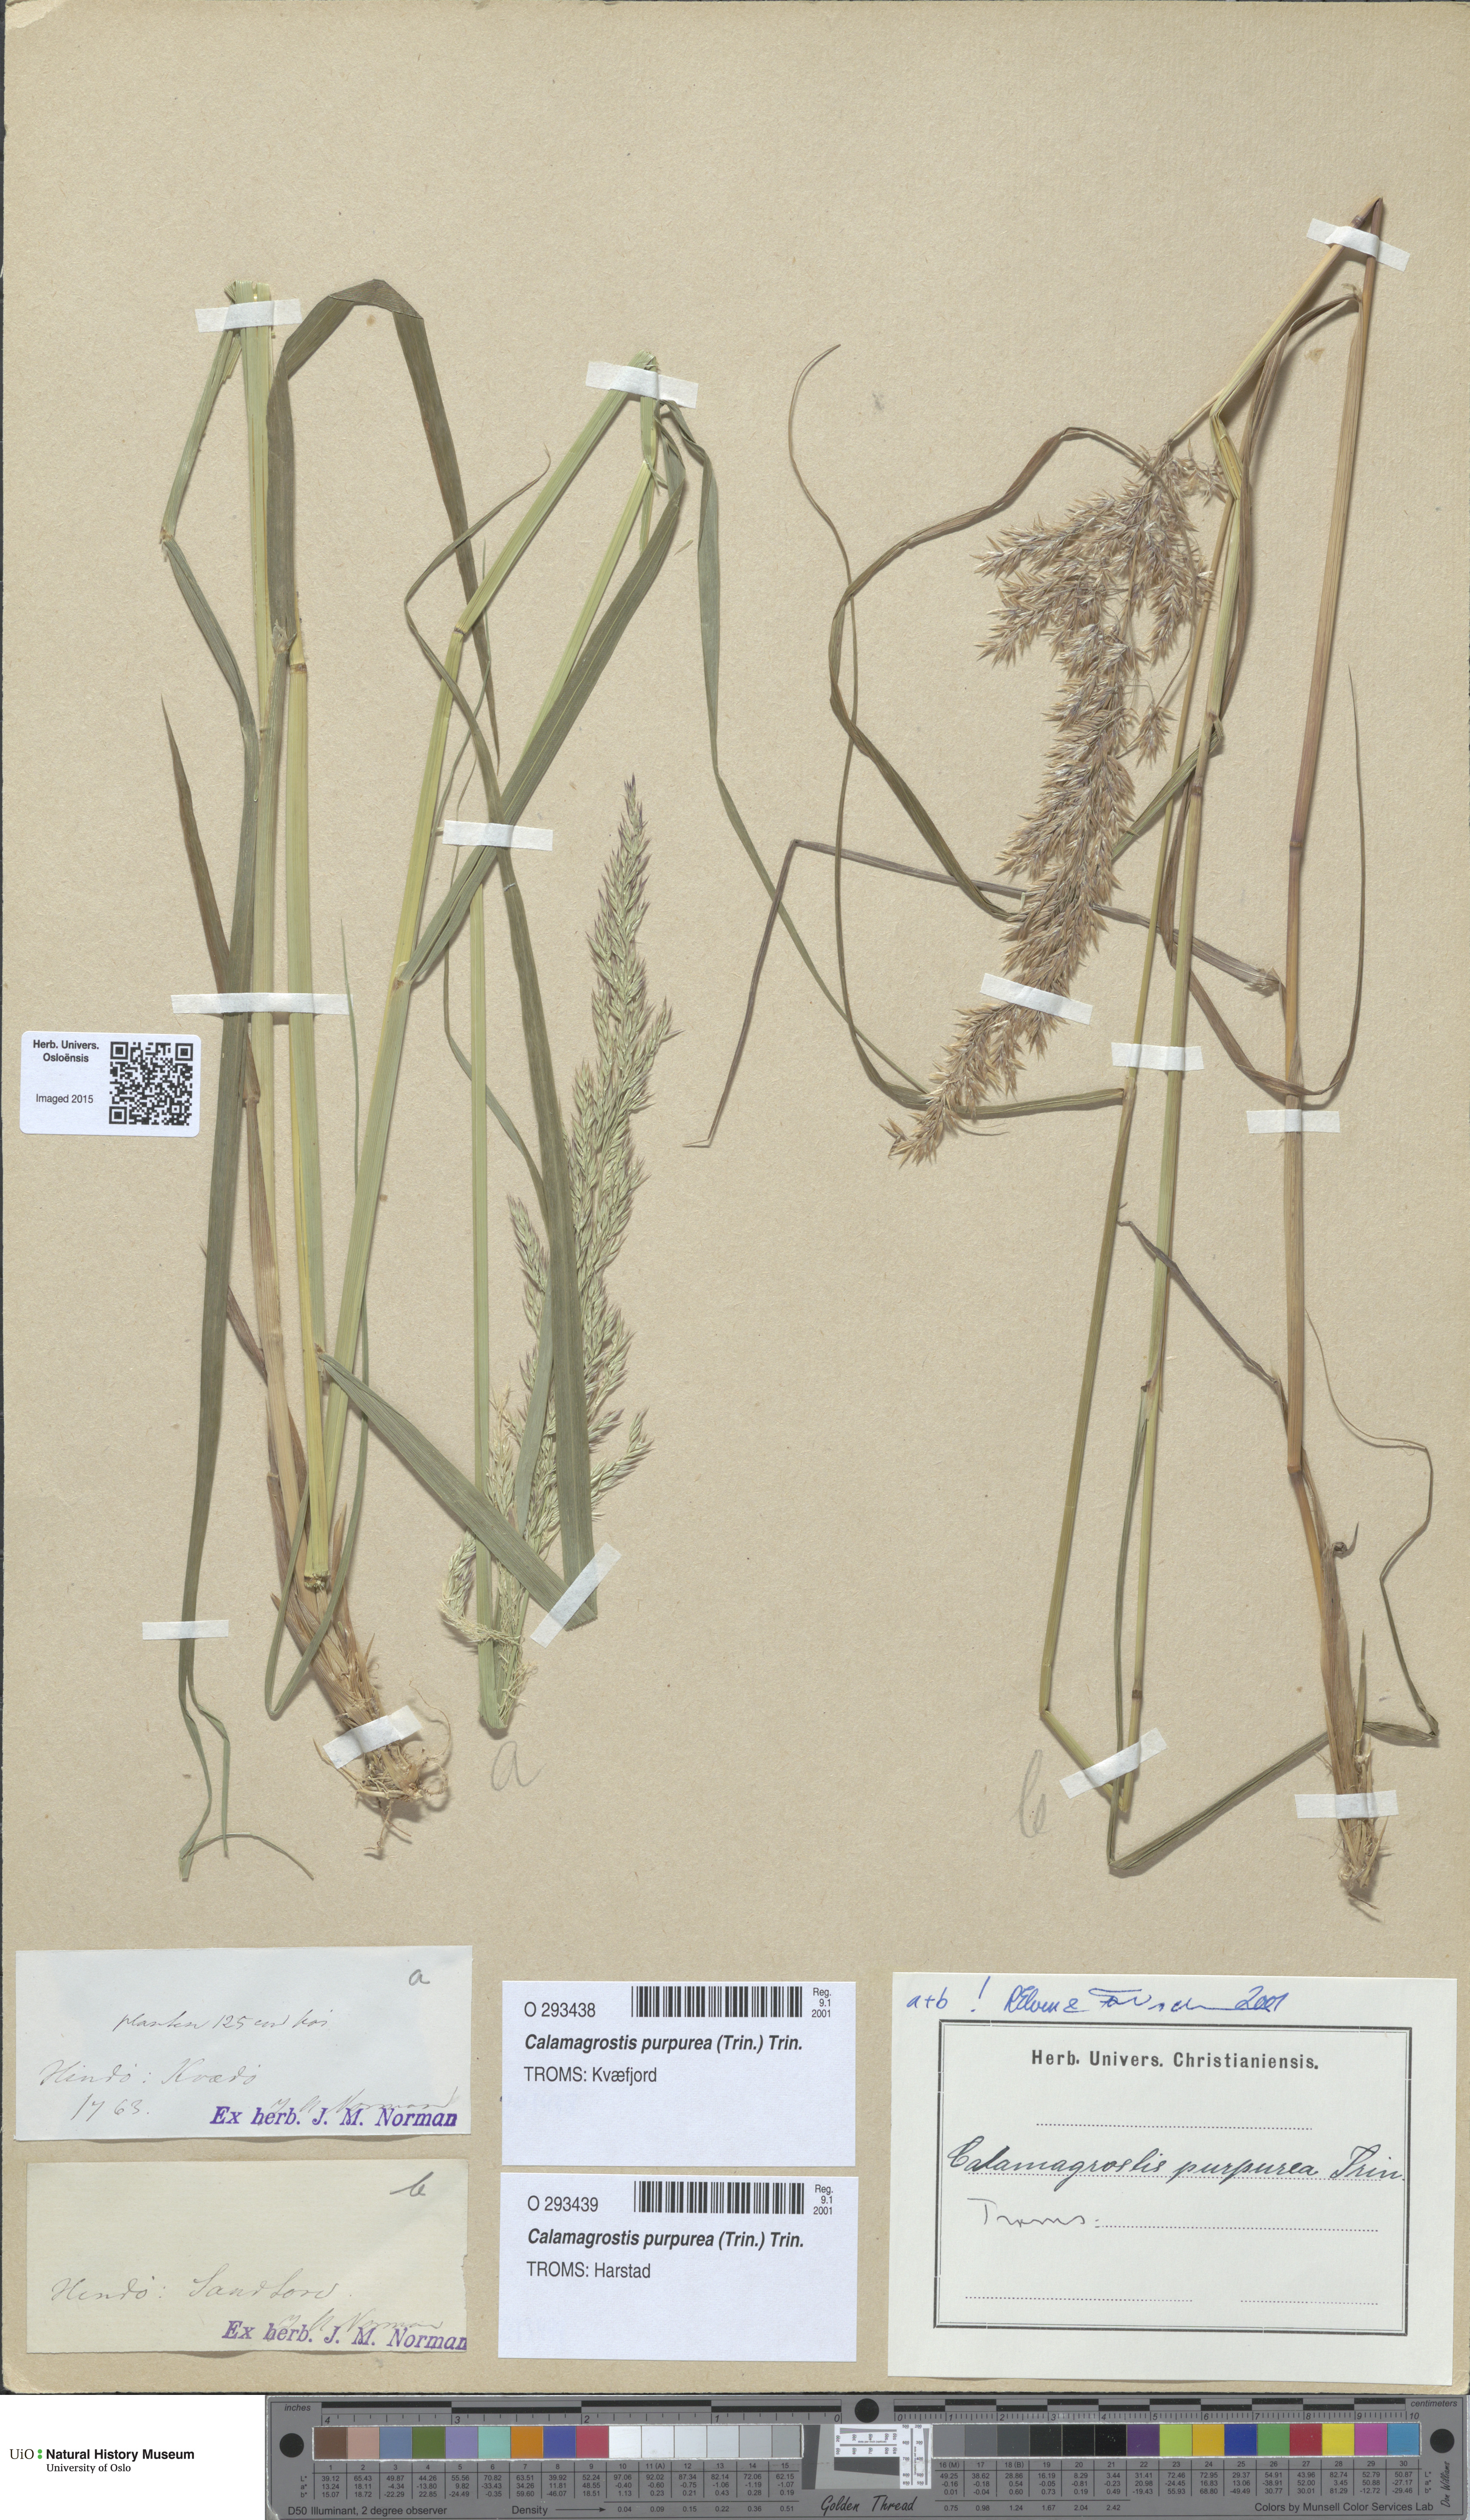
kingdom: Plantae
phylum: Tracheophyta
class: Liliopsida
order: Poales
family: Poaceae
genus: Calamagrostis
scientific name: Calamagrostis purpurea
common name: Scandinavian small-reed
